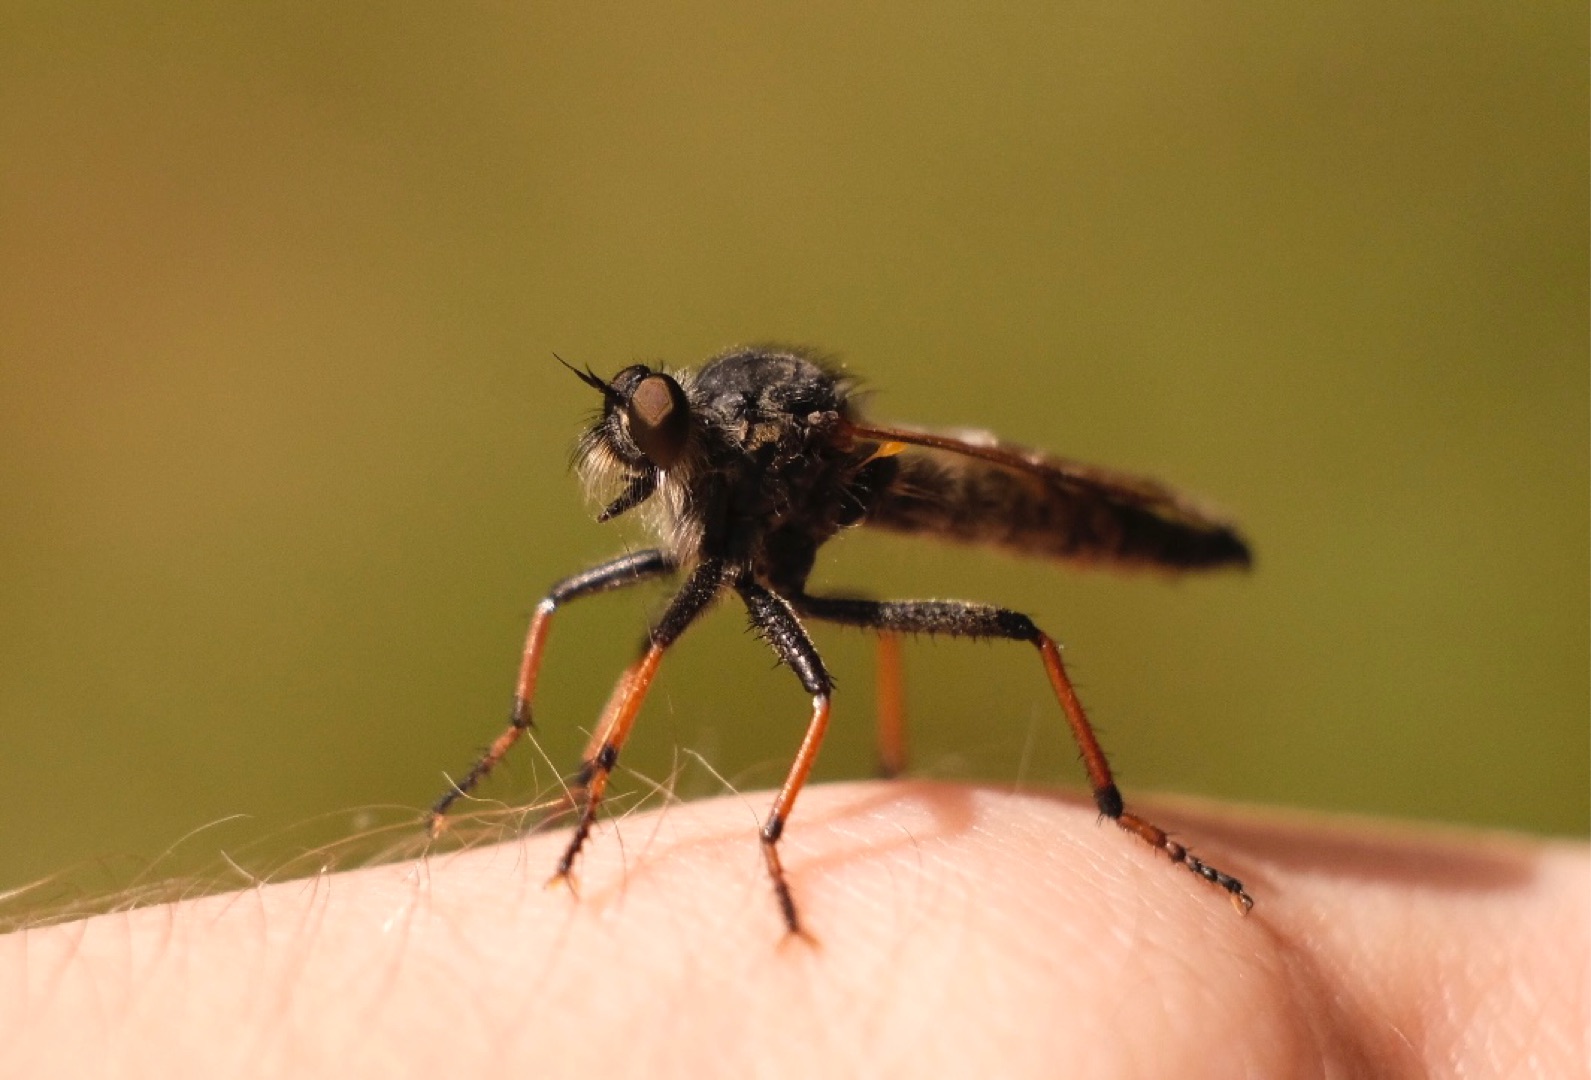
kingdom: Animalia
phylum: Arthropoda
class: Insecta
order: Diptera
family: Asilidae
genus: Pamponerus
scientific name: Pamponerus germanicus
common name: Tysk rovflue
